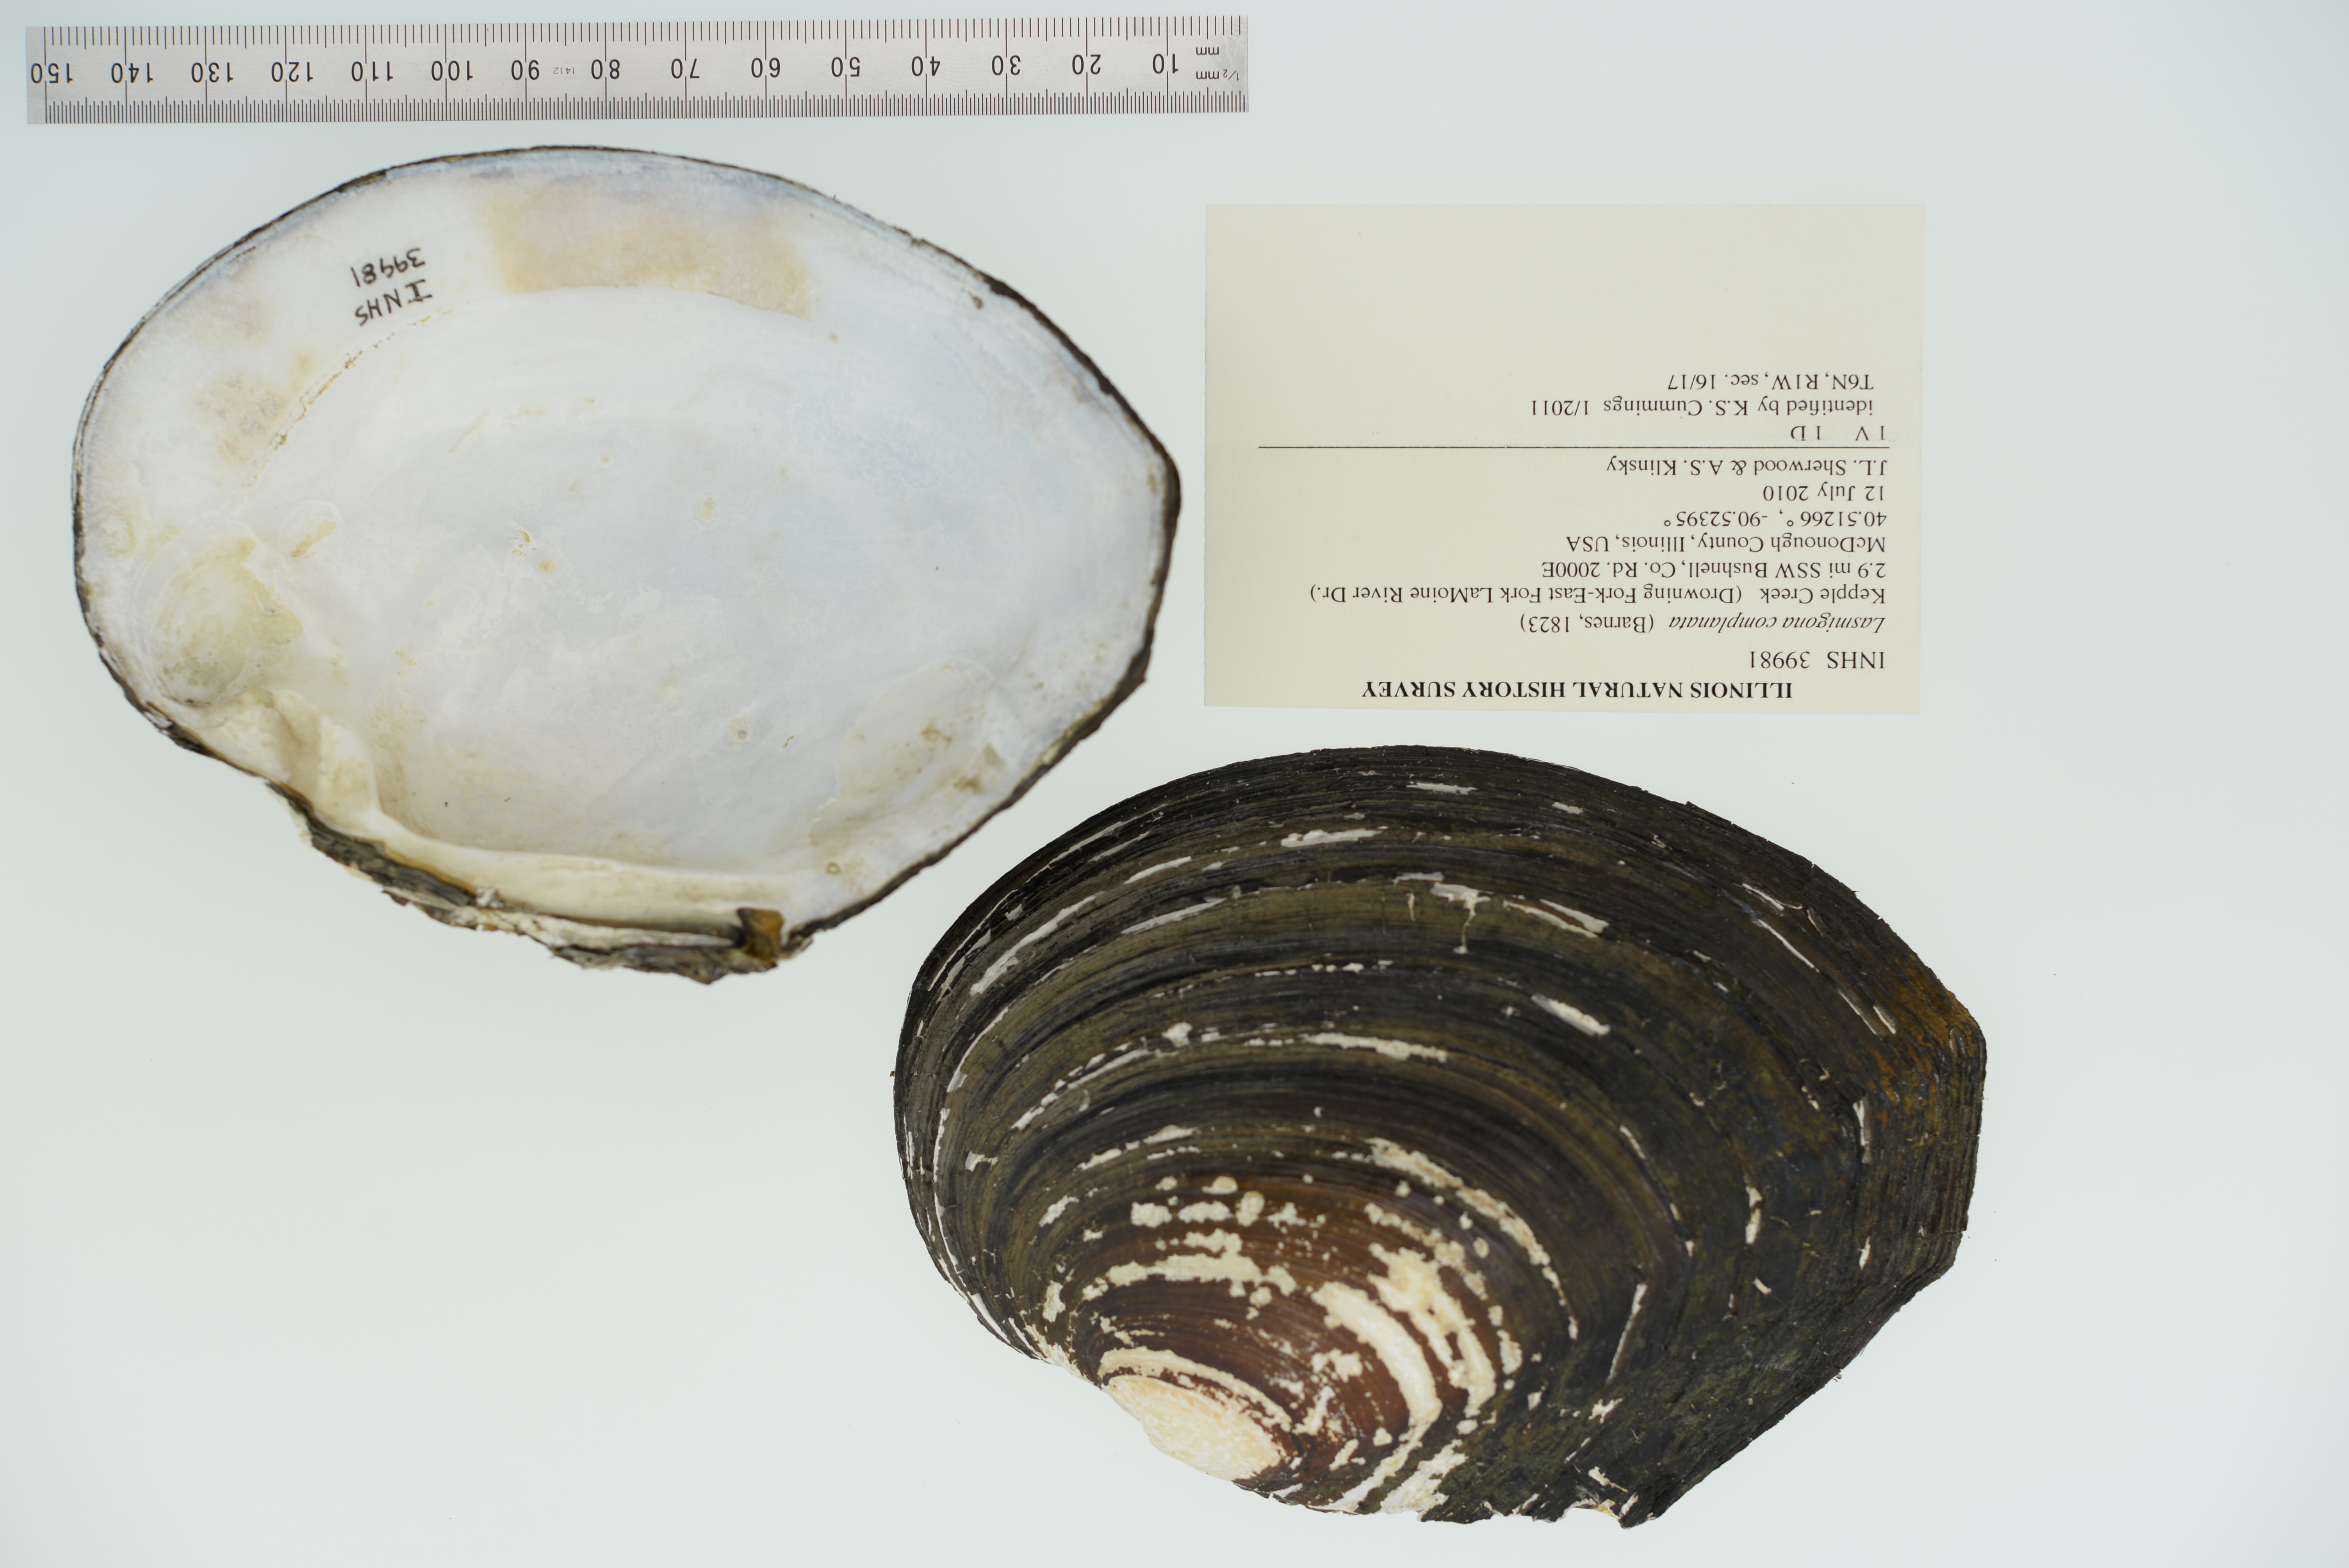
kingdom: Animalia
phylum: Mollusca
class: Bivalvia
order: Unionida
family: Unionidae
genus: Lasmigona
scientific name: Lasmigona complanata
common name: White heelsplitter
